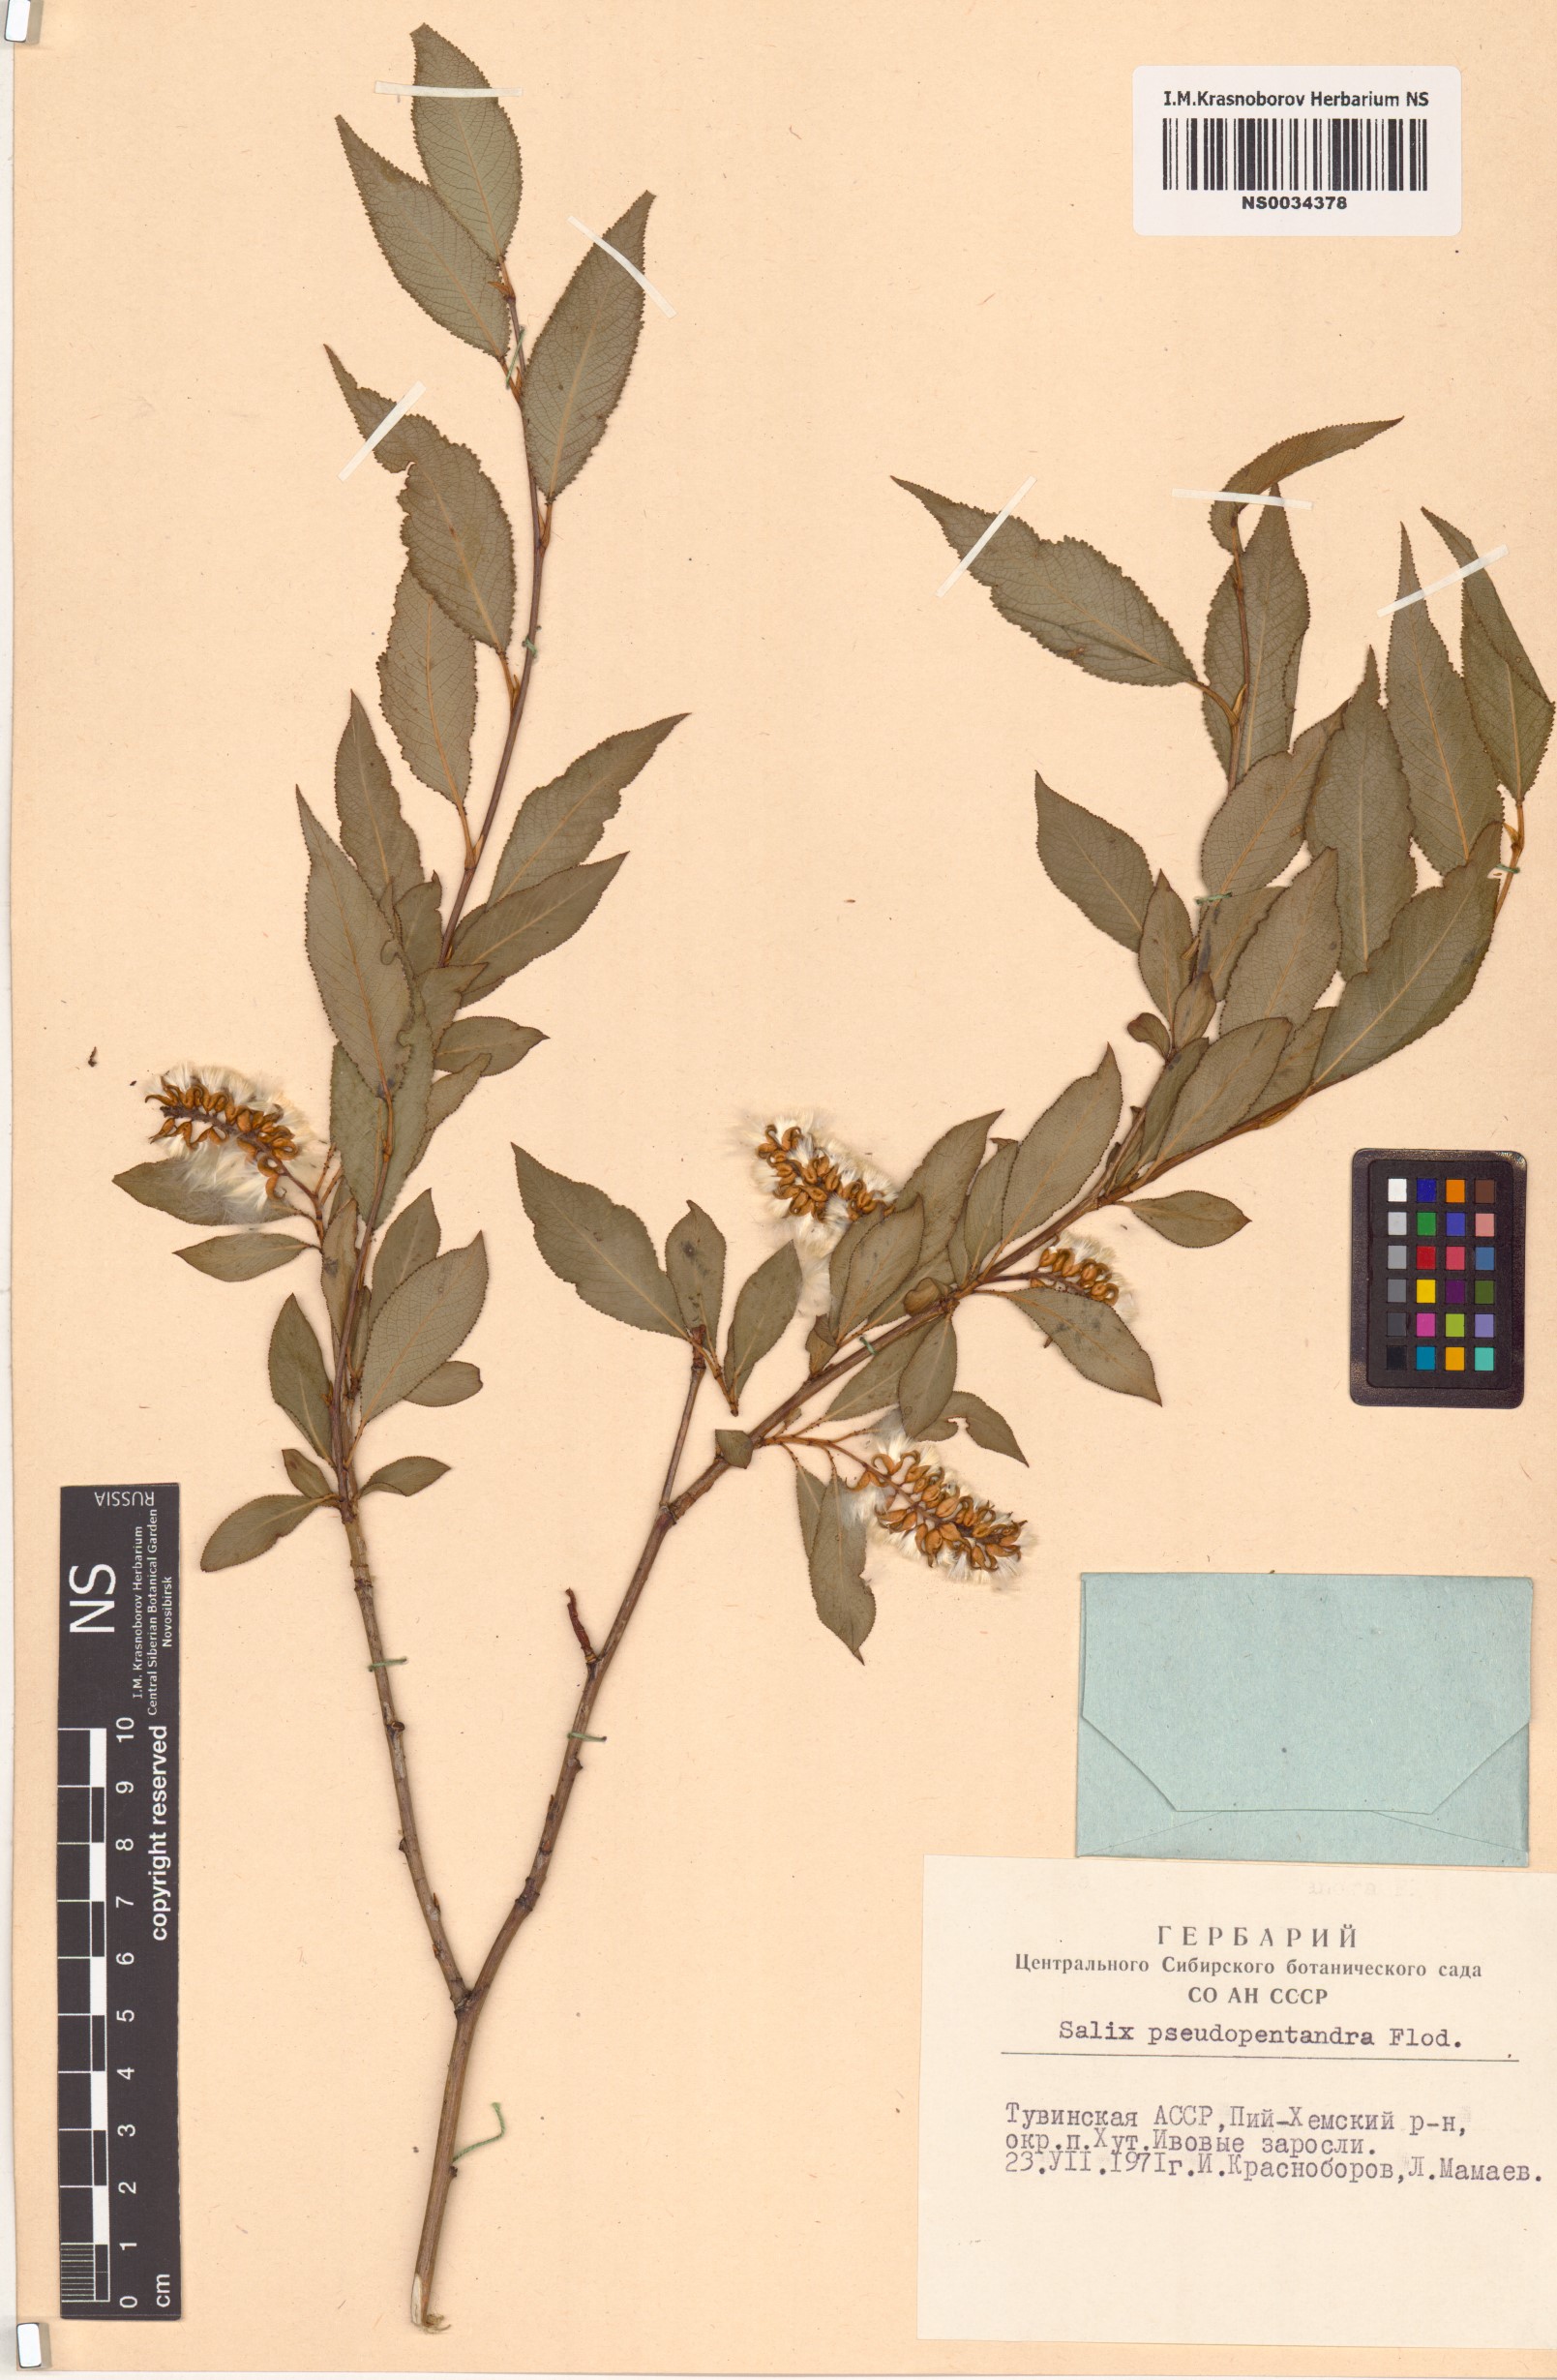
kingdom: Plantae
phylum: Tracheophyta
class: Magnoliopsida
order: Malpighiales
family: Salicaceae
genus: Salix
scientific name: Salix pseudopentandra
